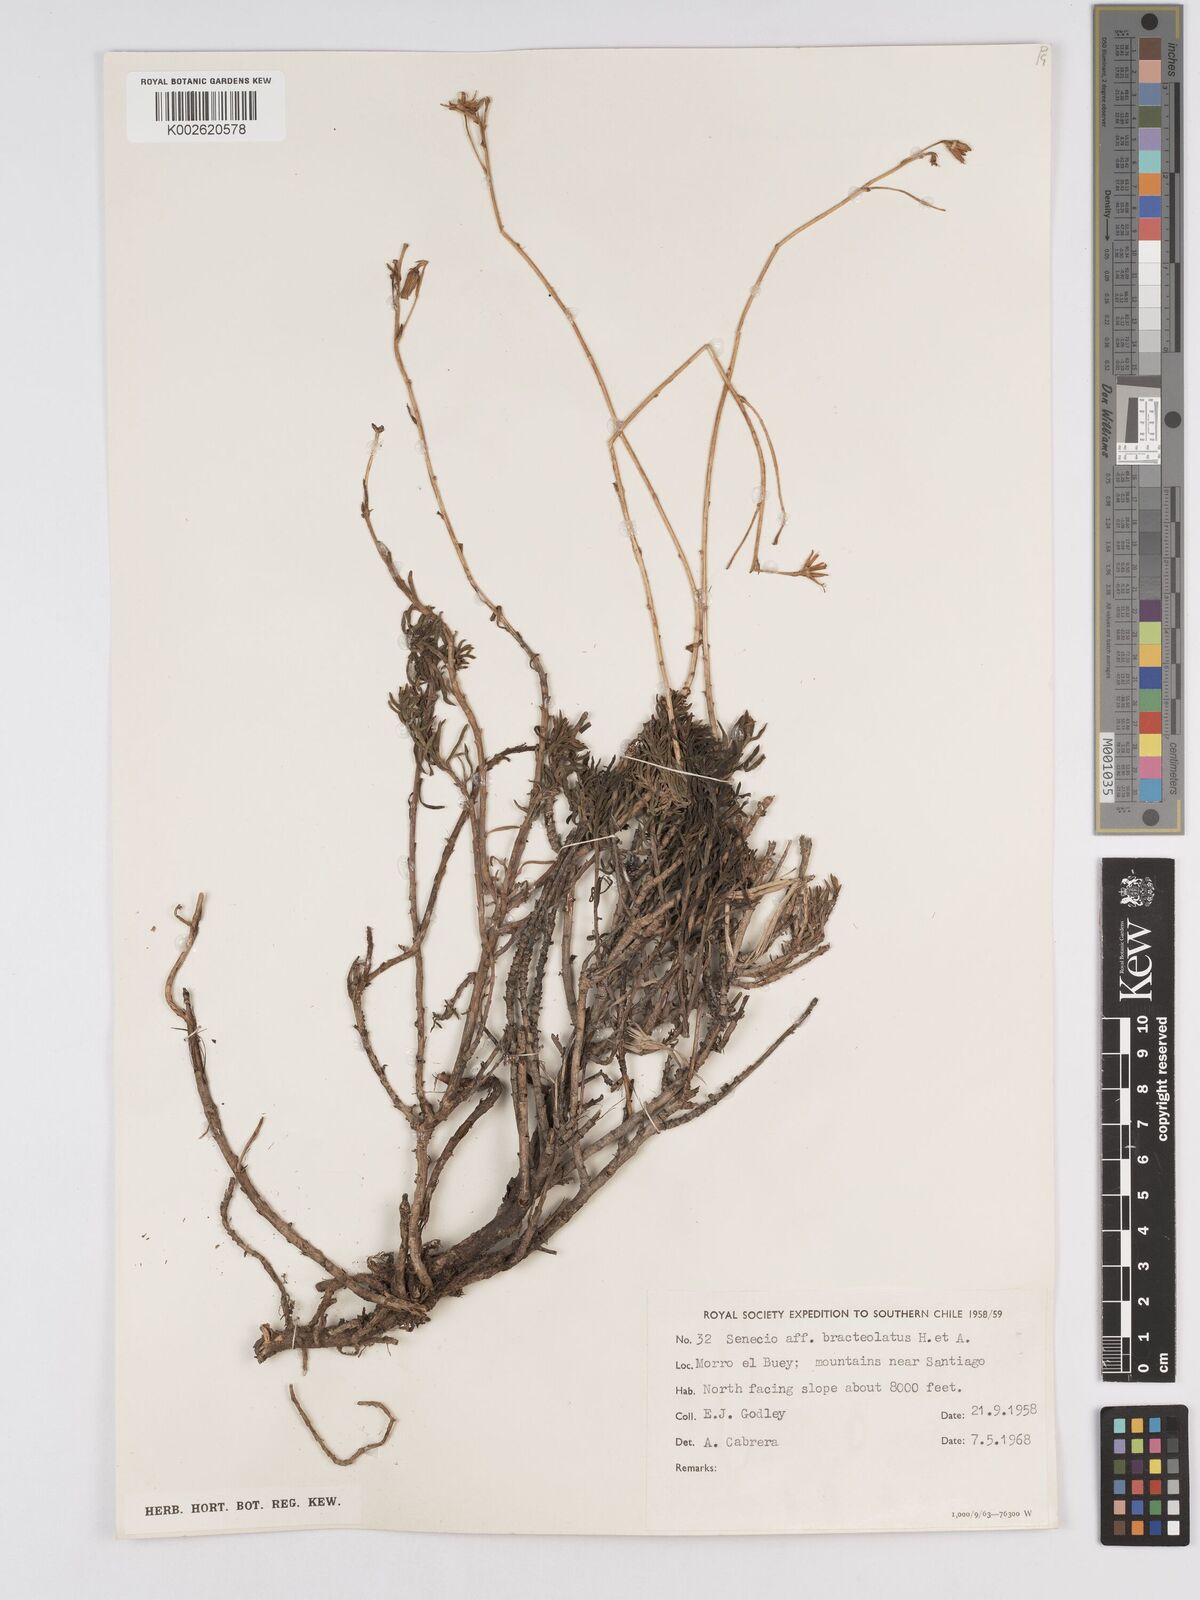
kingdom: Plantae
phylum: Tracheophyta
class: Magnoliopsida
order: Asterales
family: Asteraceae
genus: Senecio
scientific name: Senecio bracteolatus
